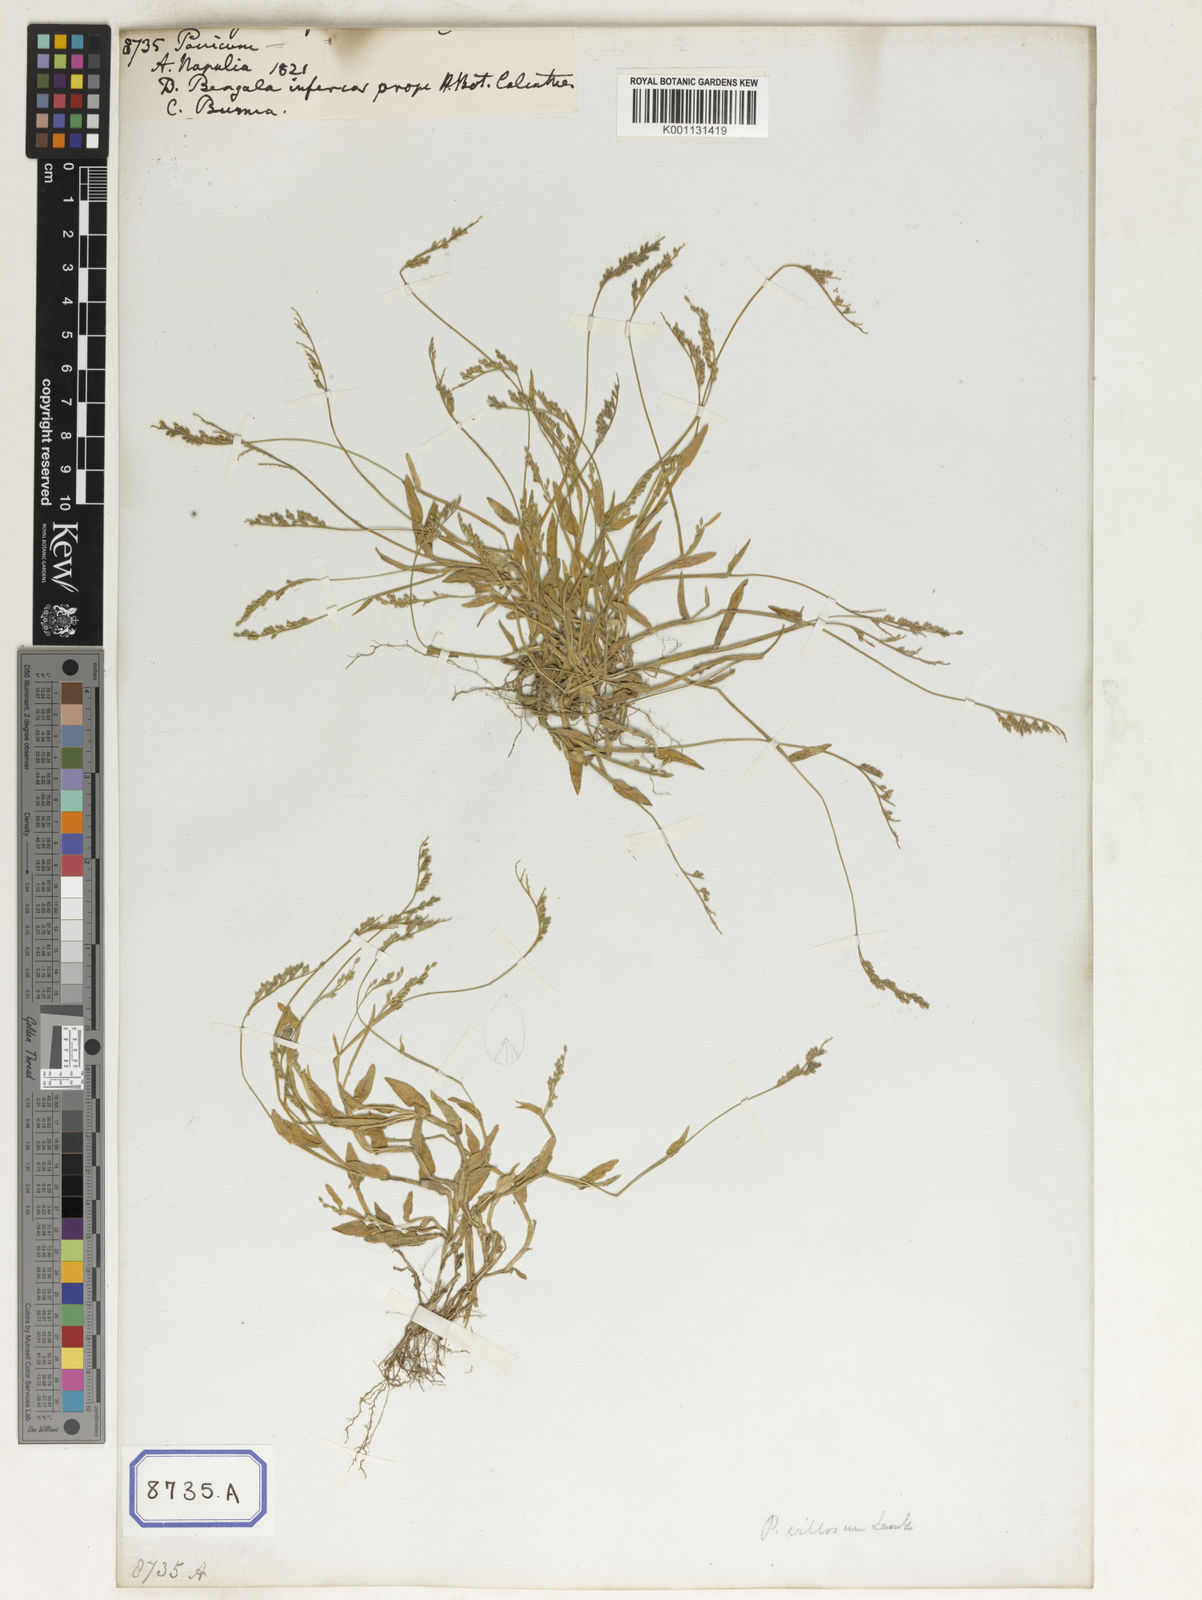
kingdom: Plantae
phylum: Tracheophyta
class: Liliopsida
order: Poales
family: Poaceae
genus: Panicum
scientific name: Panicum
